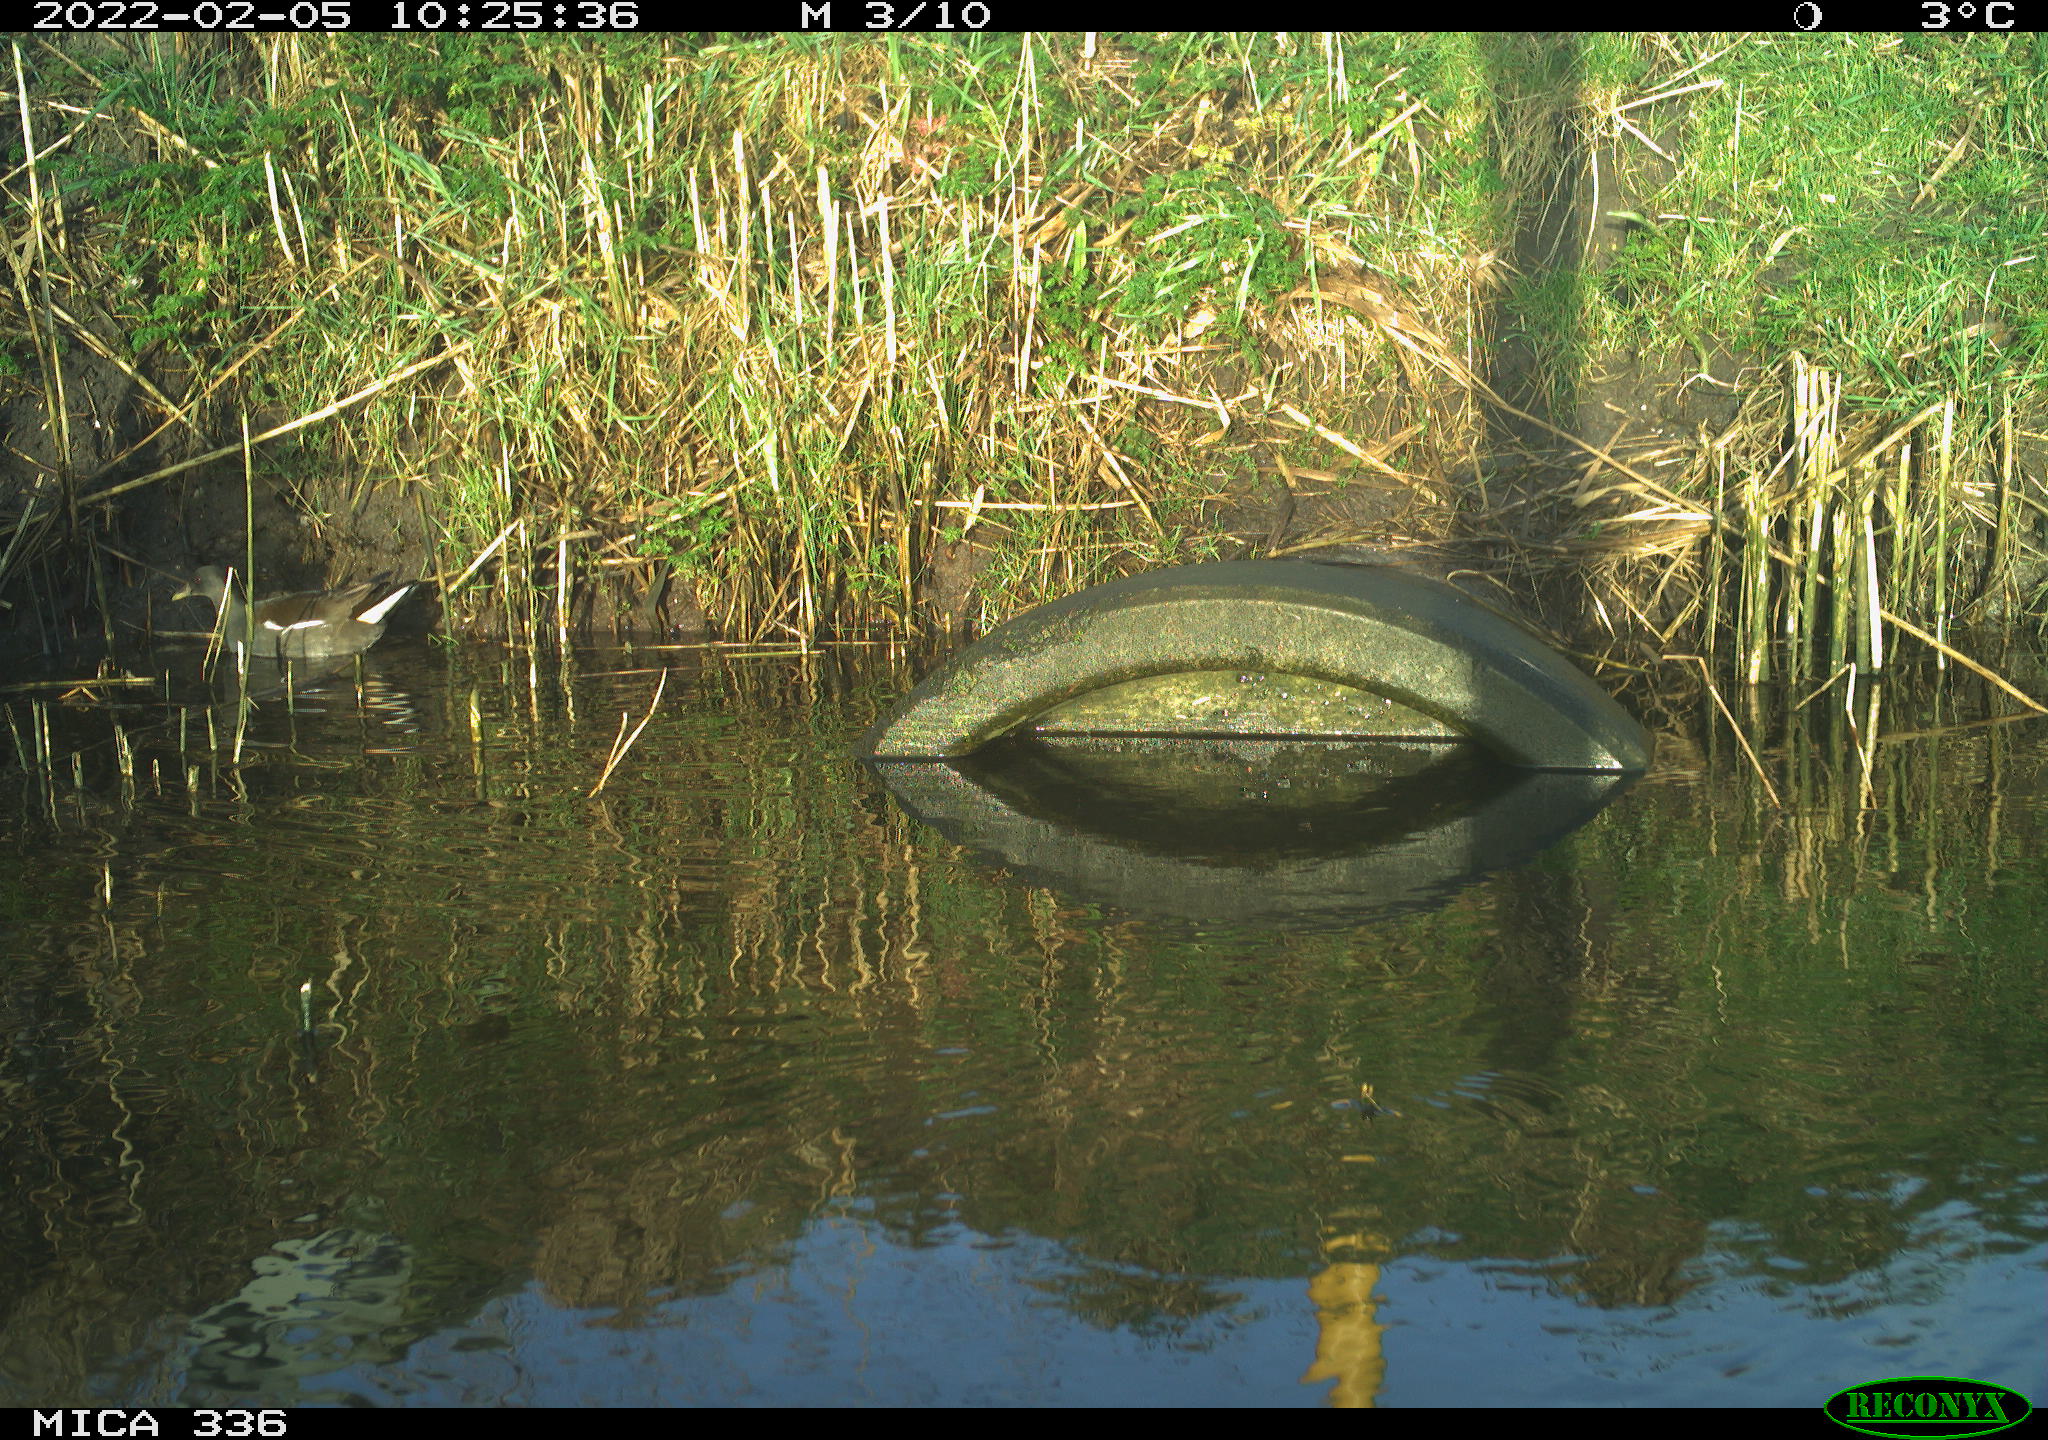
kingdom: Animalia
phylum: Chordata
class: Aves
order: Gruiformes
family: Rallidae
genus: Gallinula
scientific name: Gallinula chloropus
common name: Common moorhen
